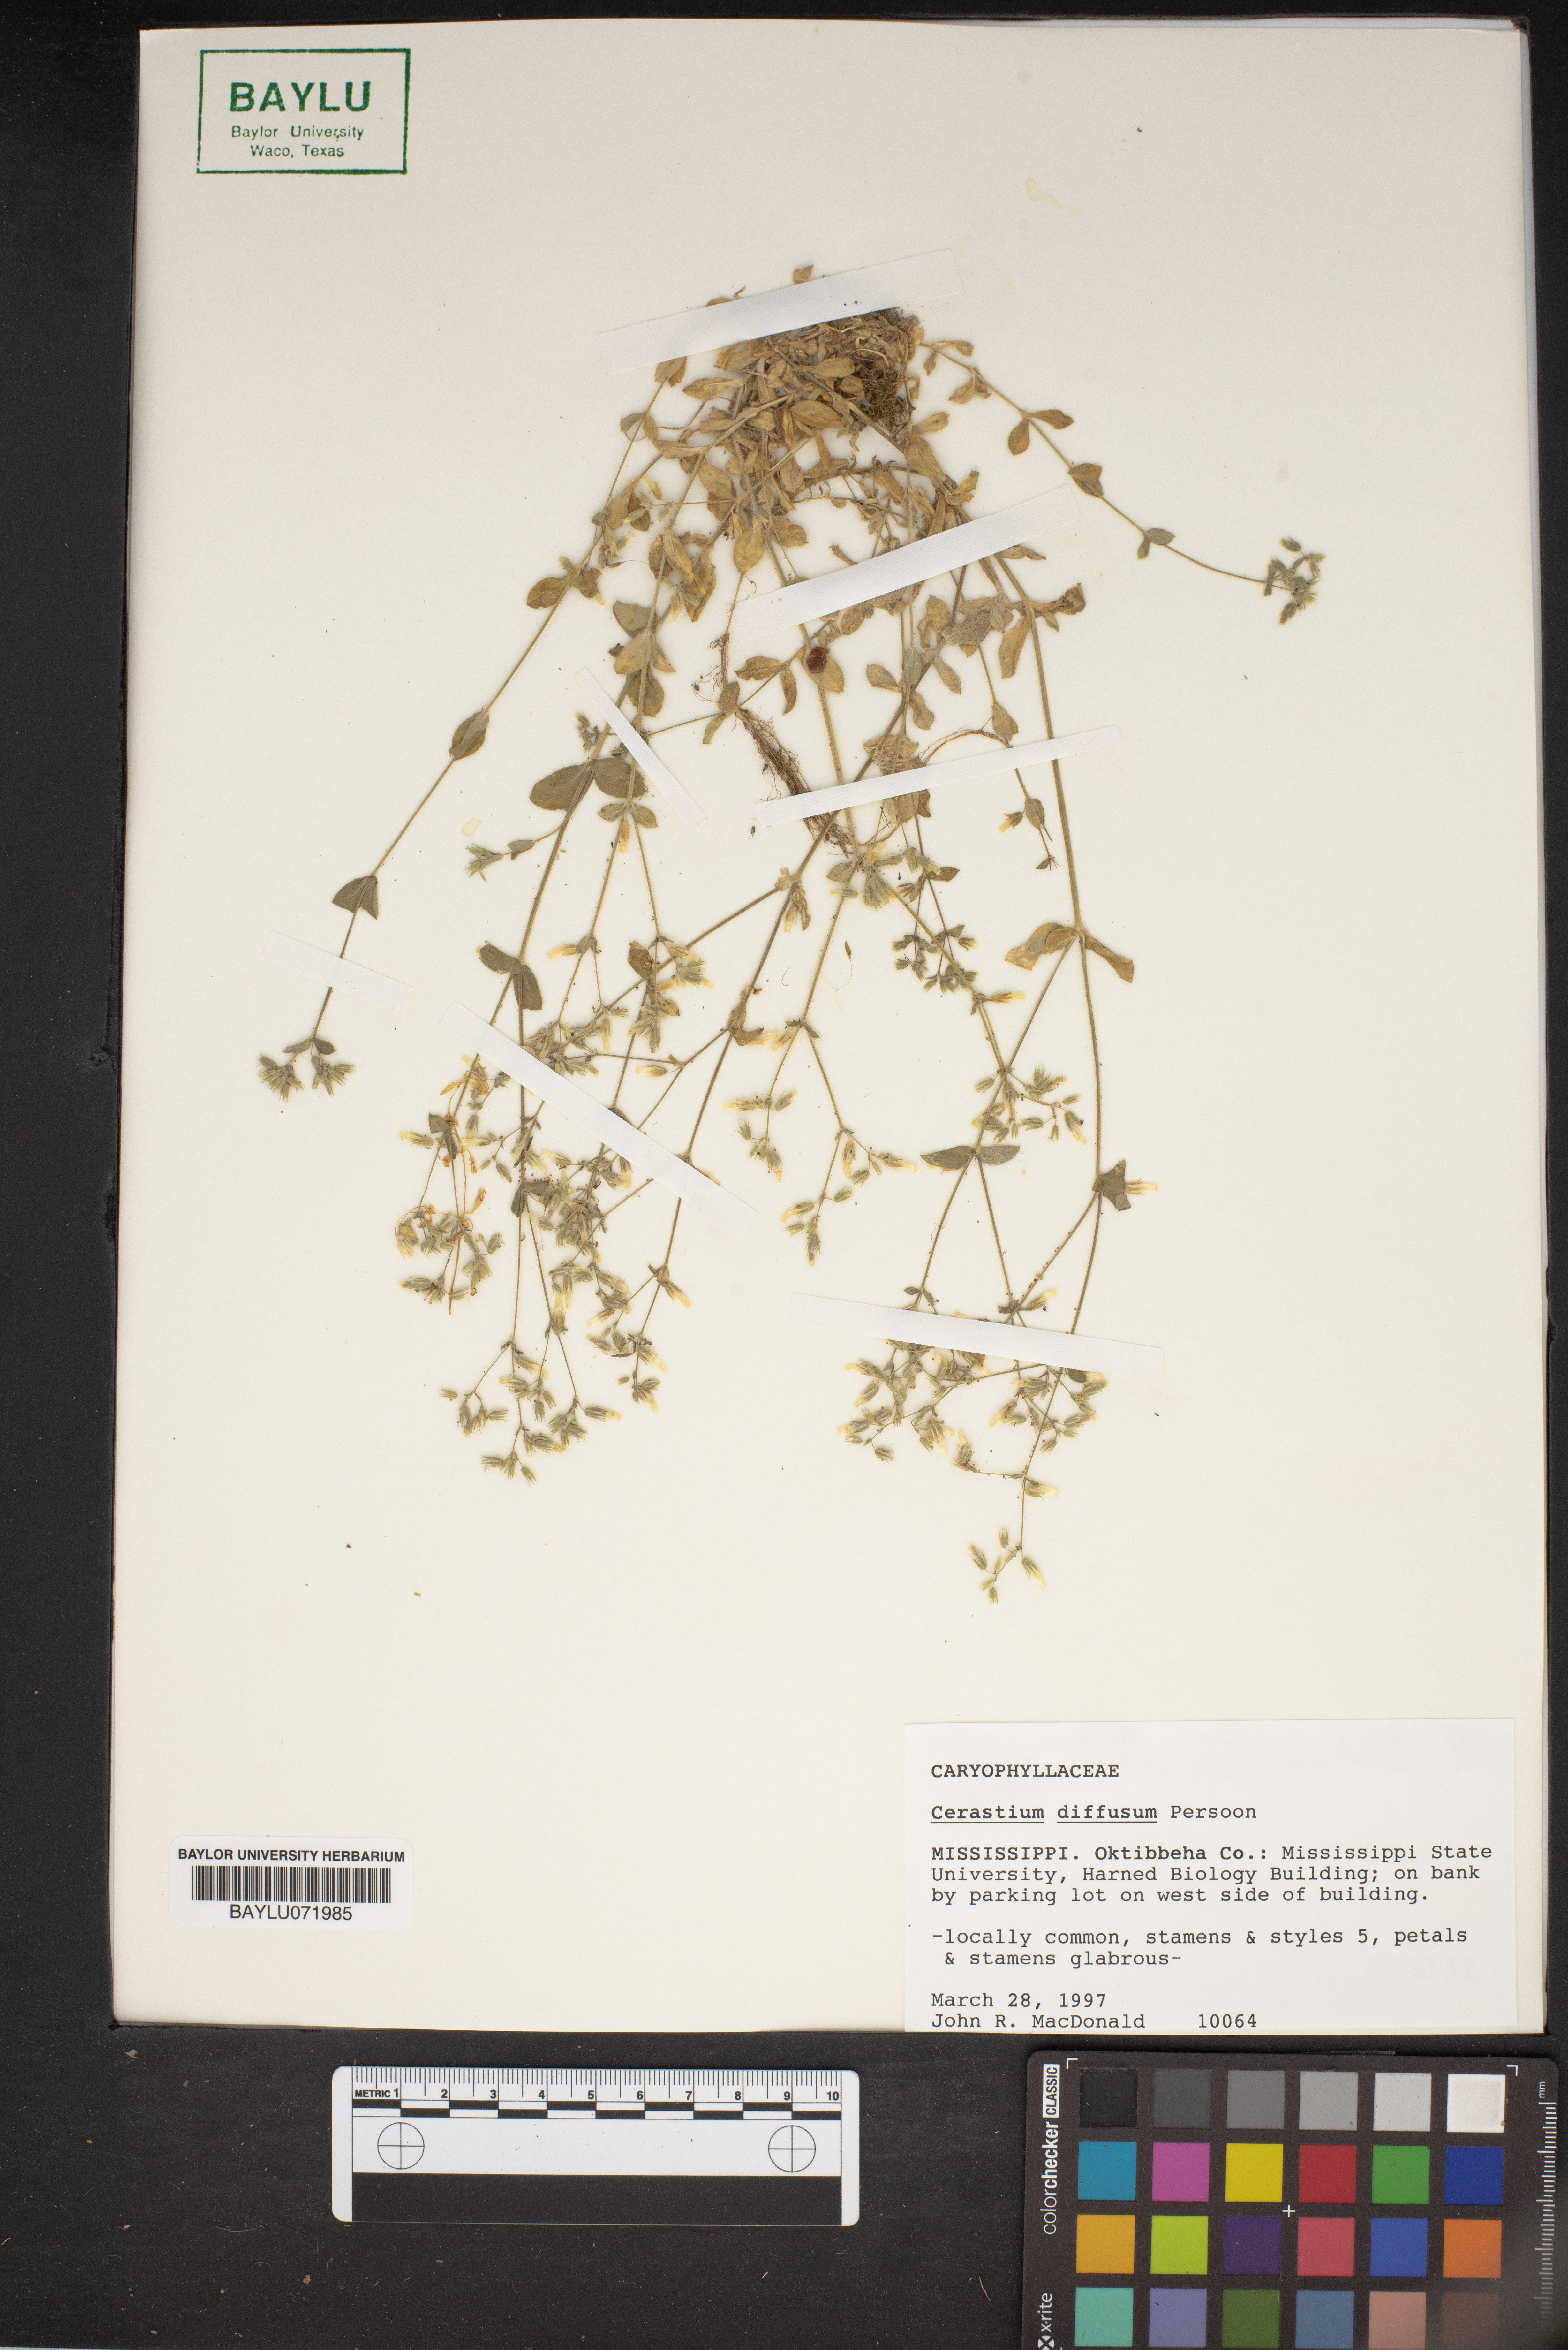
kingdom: Plantae
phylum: Tracheophyta
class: Magnoliopsida
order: Caryophyllales
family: Caryophyllaceae
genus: Cerastium
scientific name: Cerastium diffusum
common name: Fourstamen chickweed
